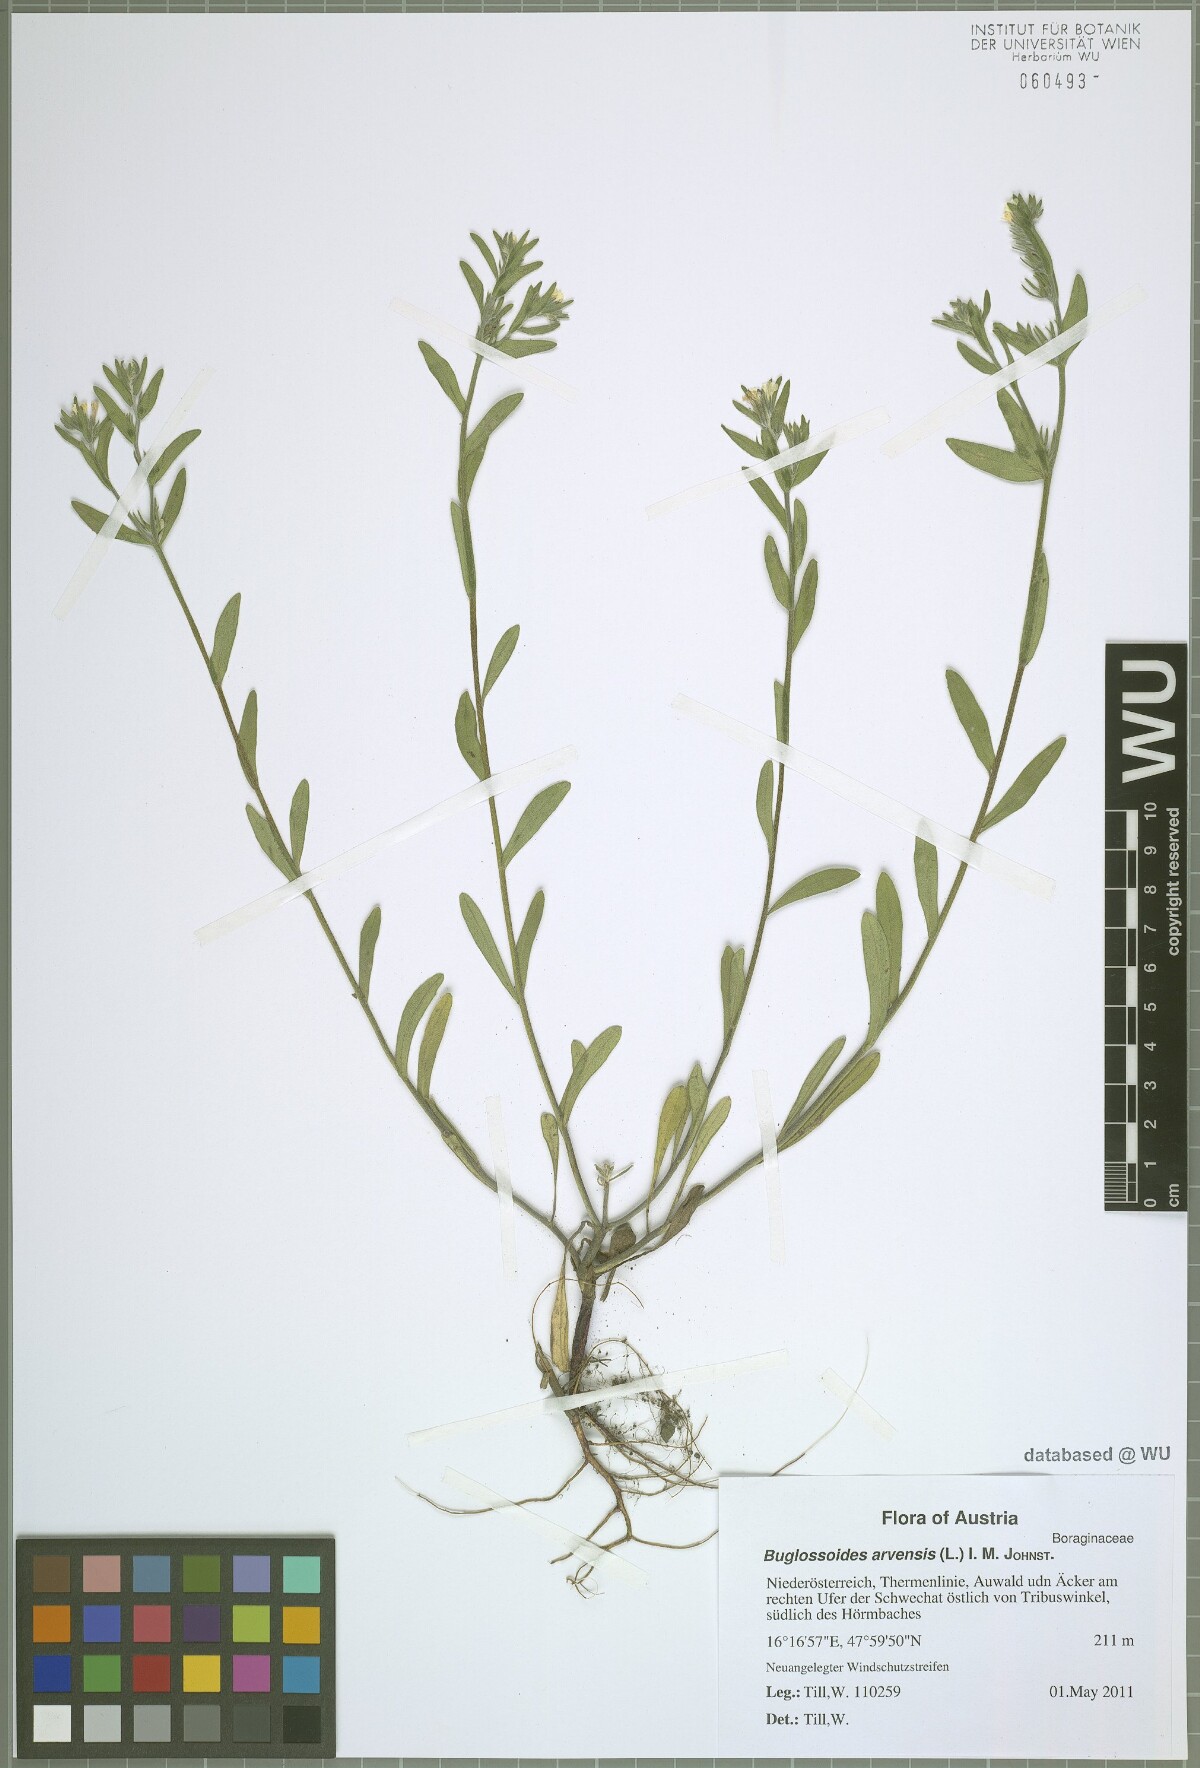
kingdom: Plantae
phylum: Tracheophyta
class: Magnoliopsida
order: Boraginales
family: Boraginaceae
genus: Buglossoides
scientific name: Buglossoides arvensis
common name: Corn gromwell
